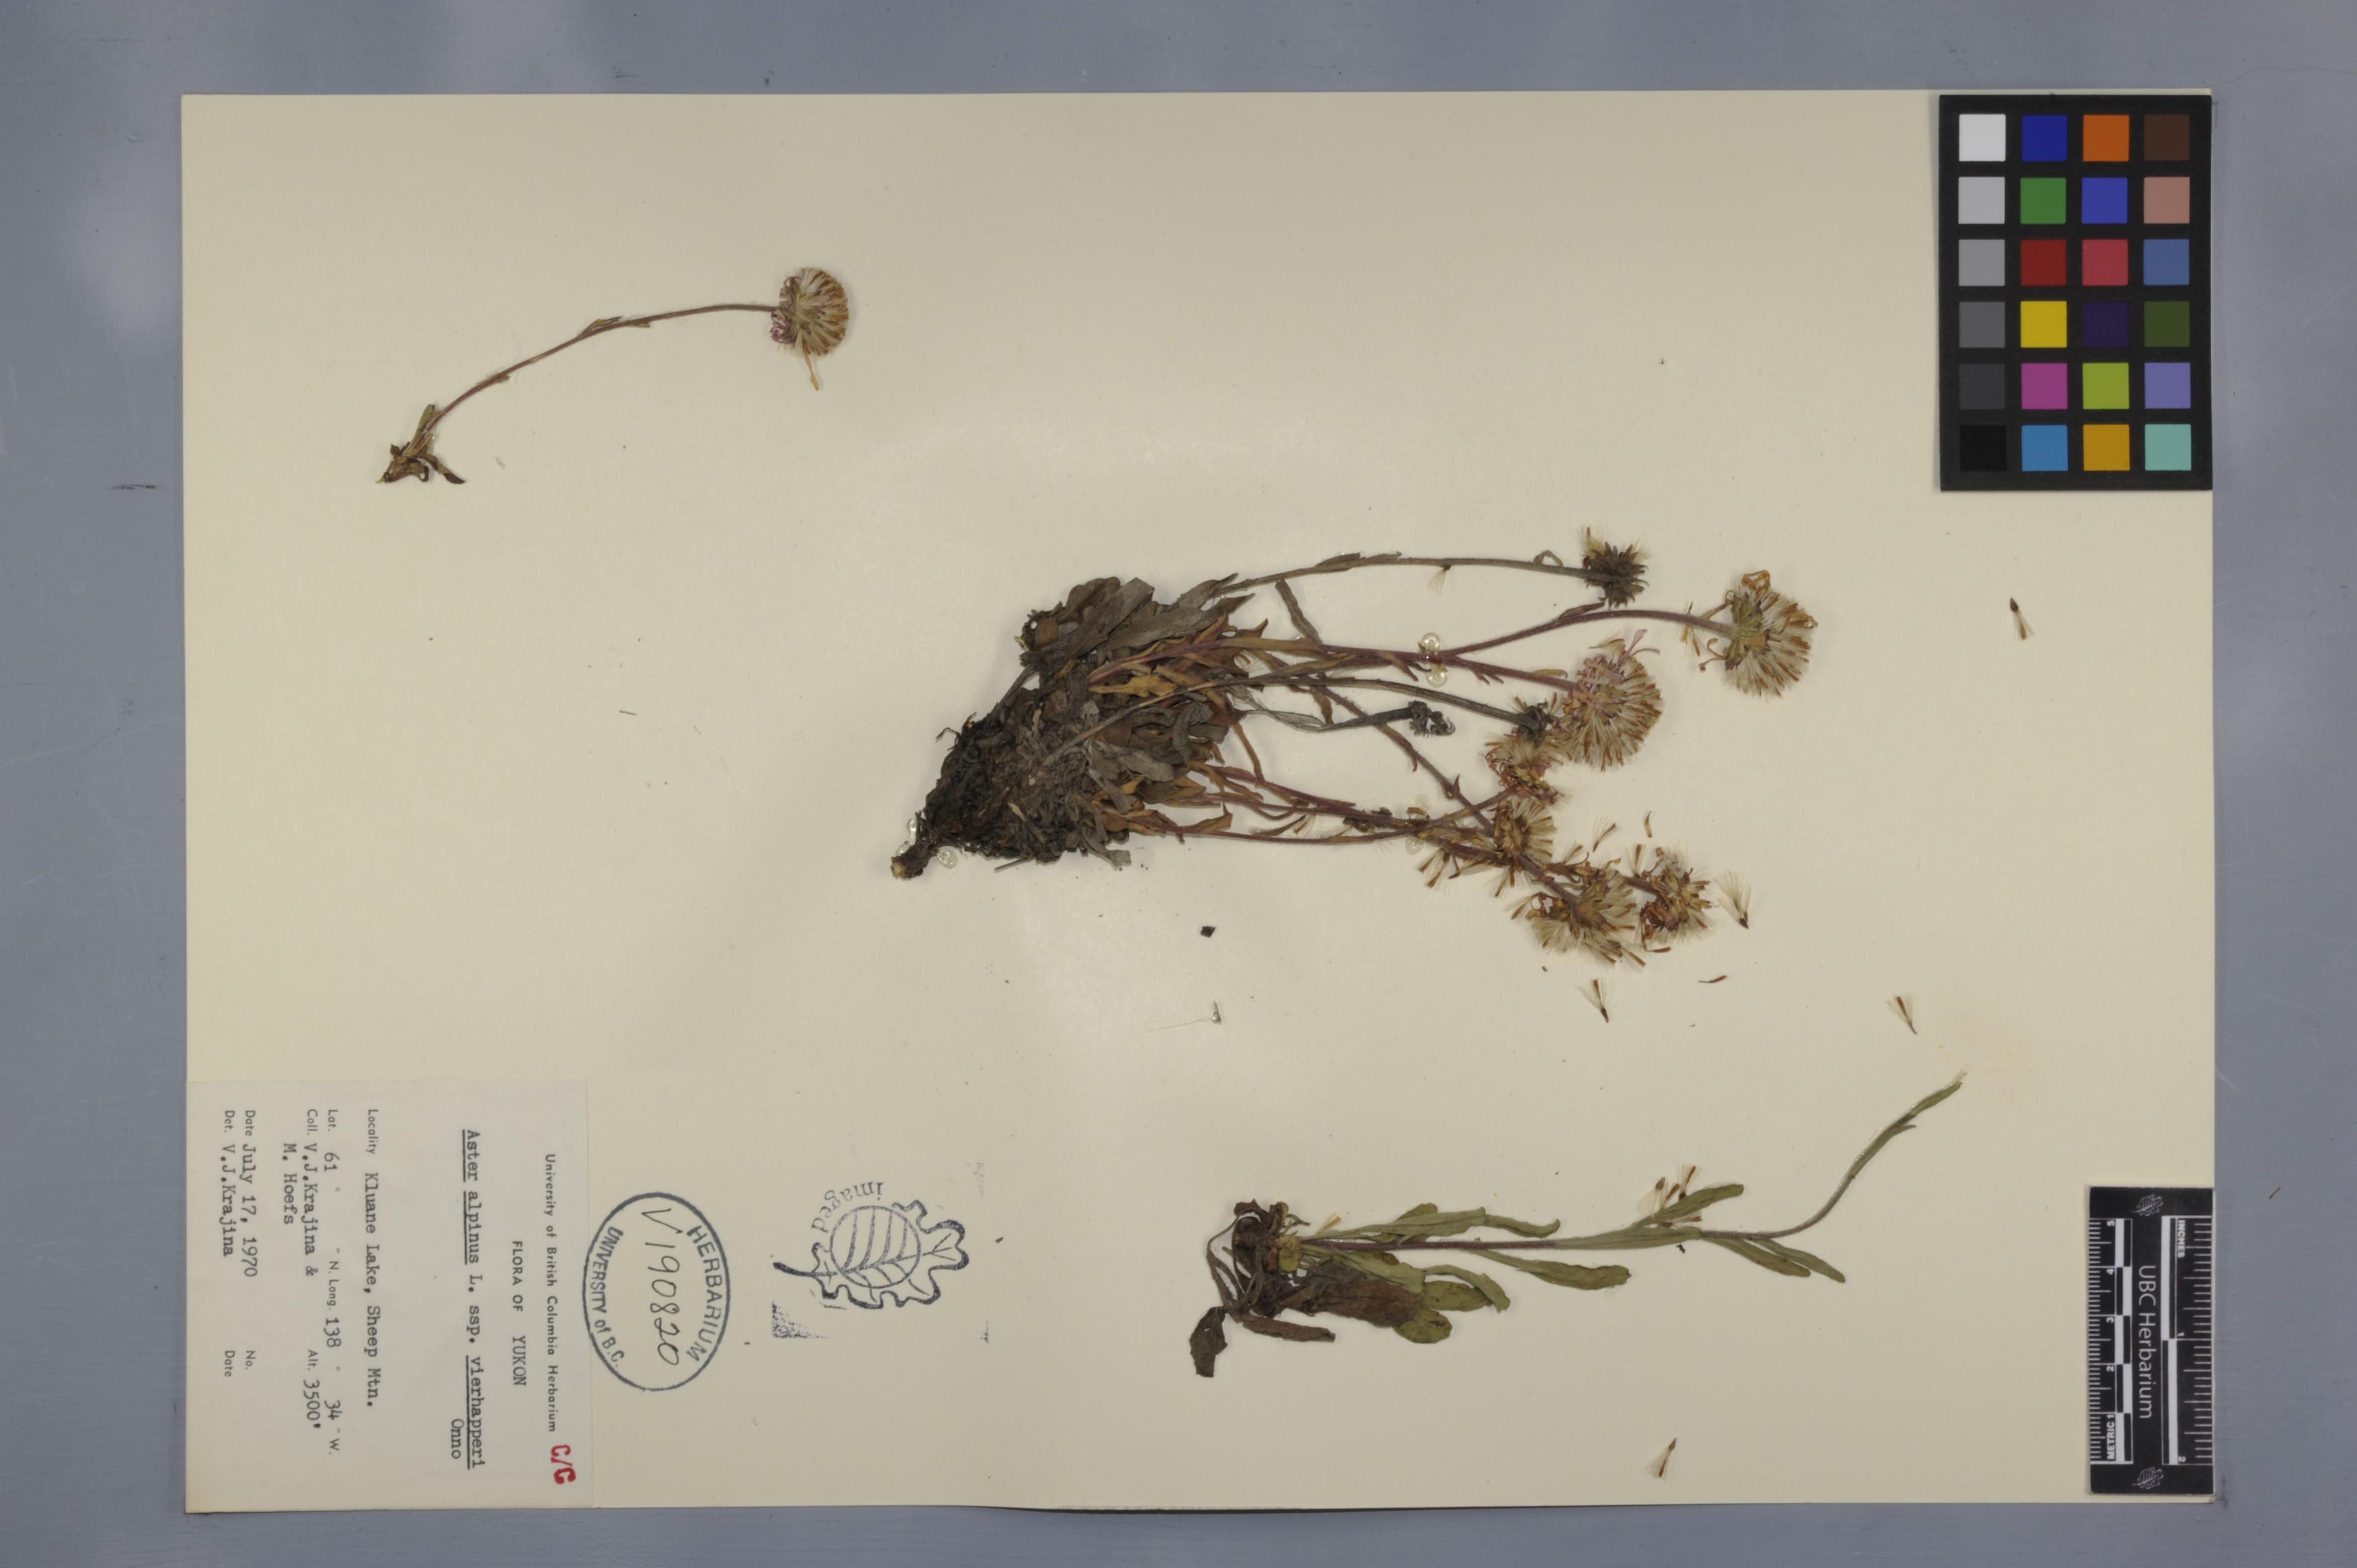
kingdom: Plantae
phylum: Tracheophyta
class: Magnoliopsida
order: Asterales
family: Asteraceae
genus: Aster
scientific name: Aster alpinus
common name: Alpine aster
